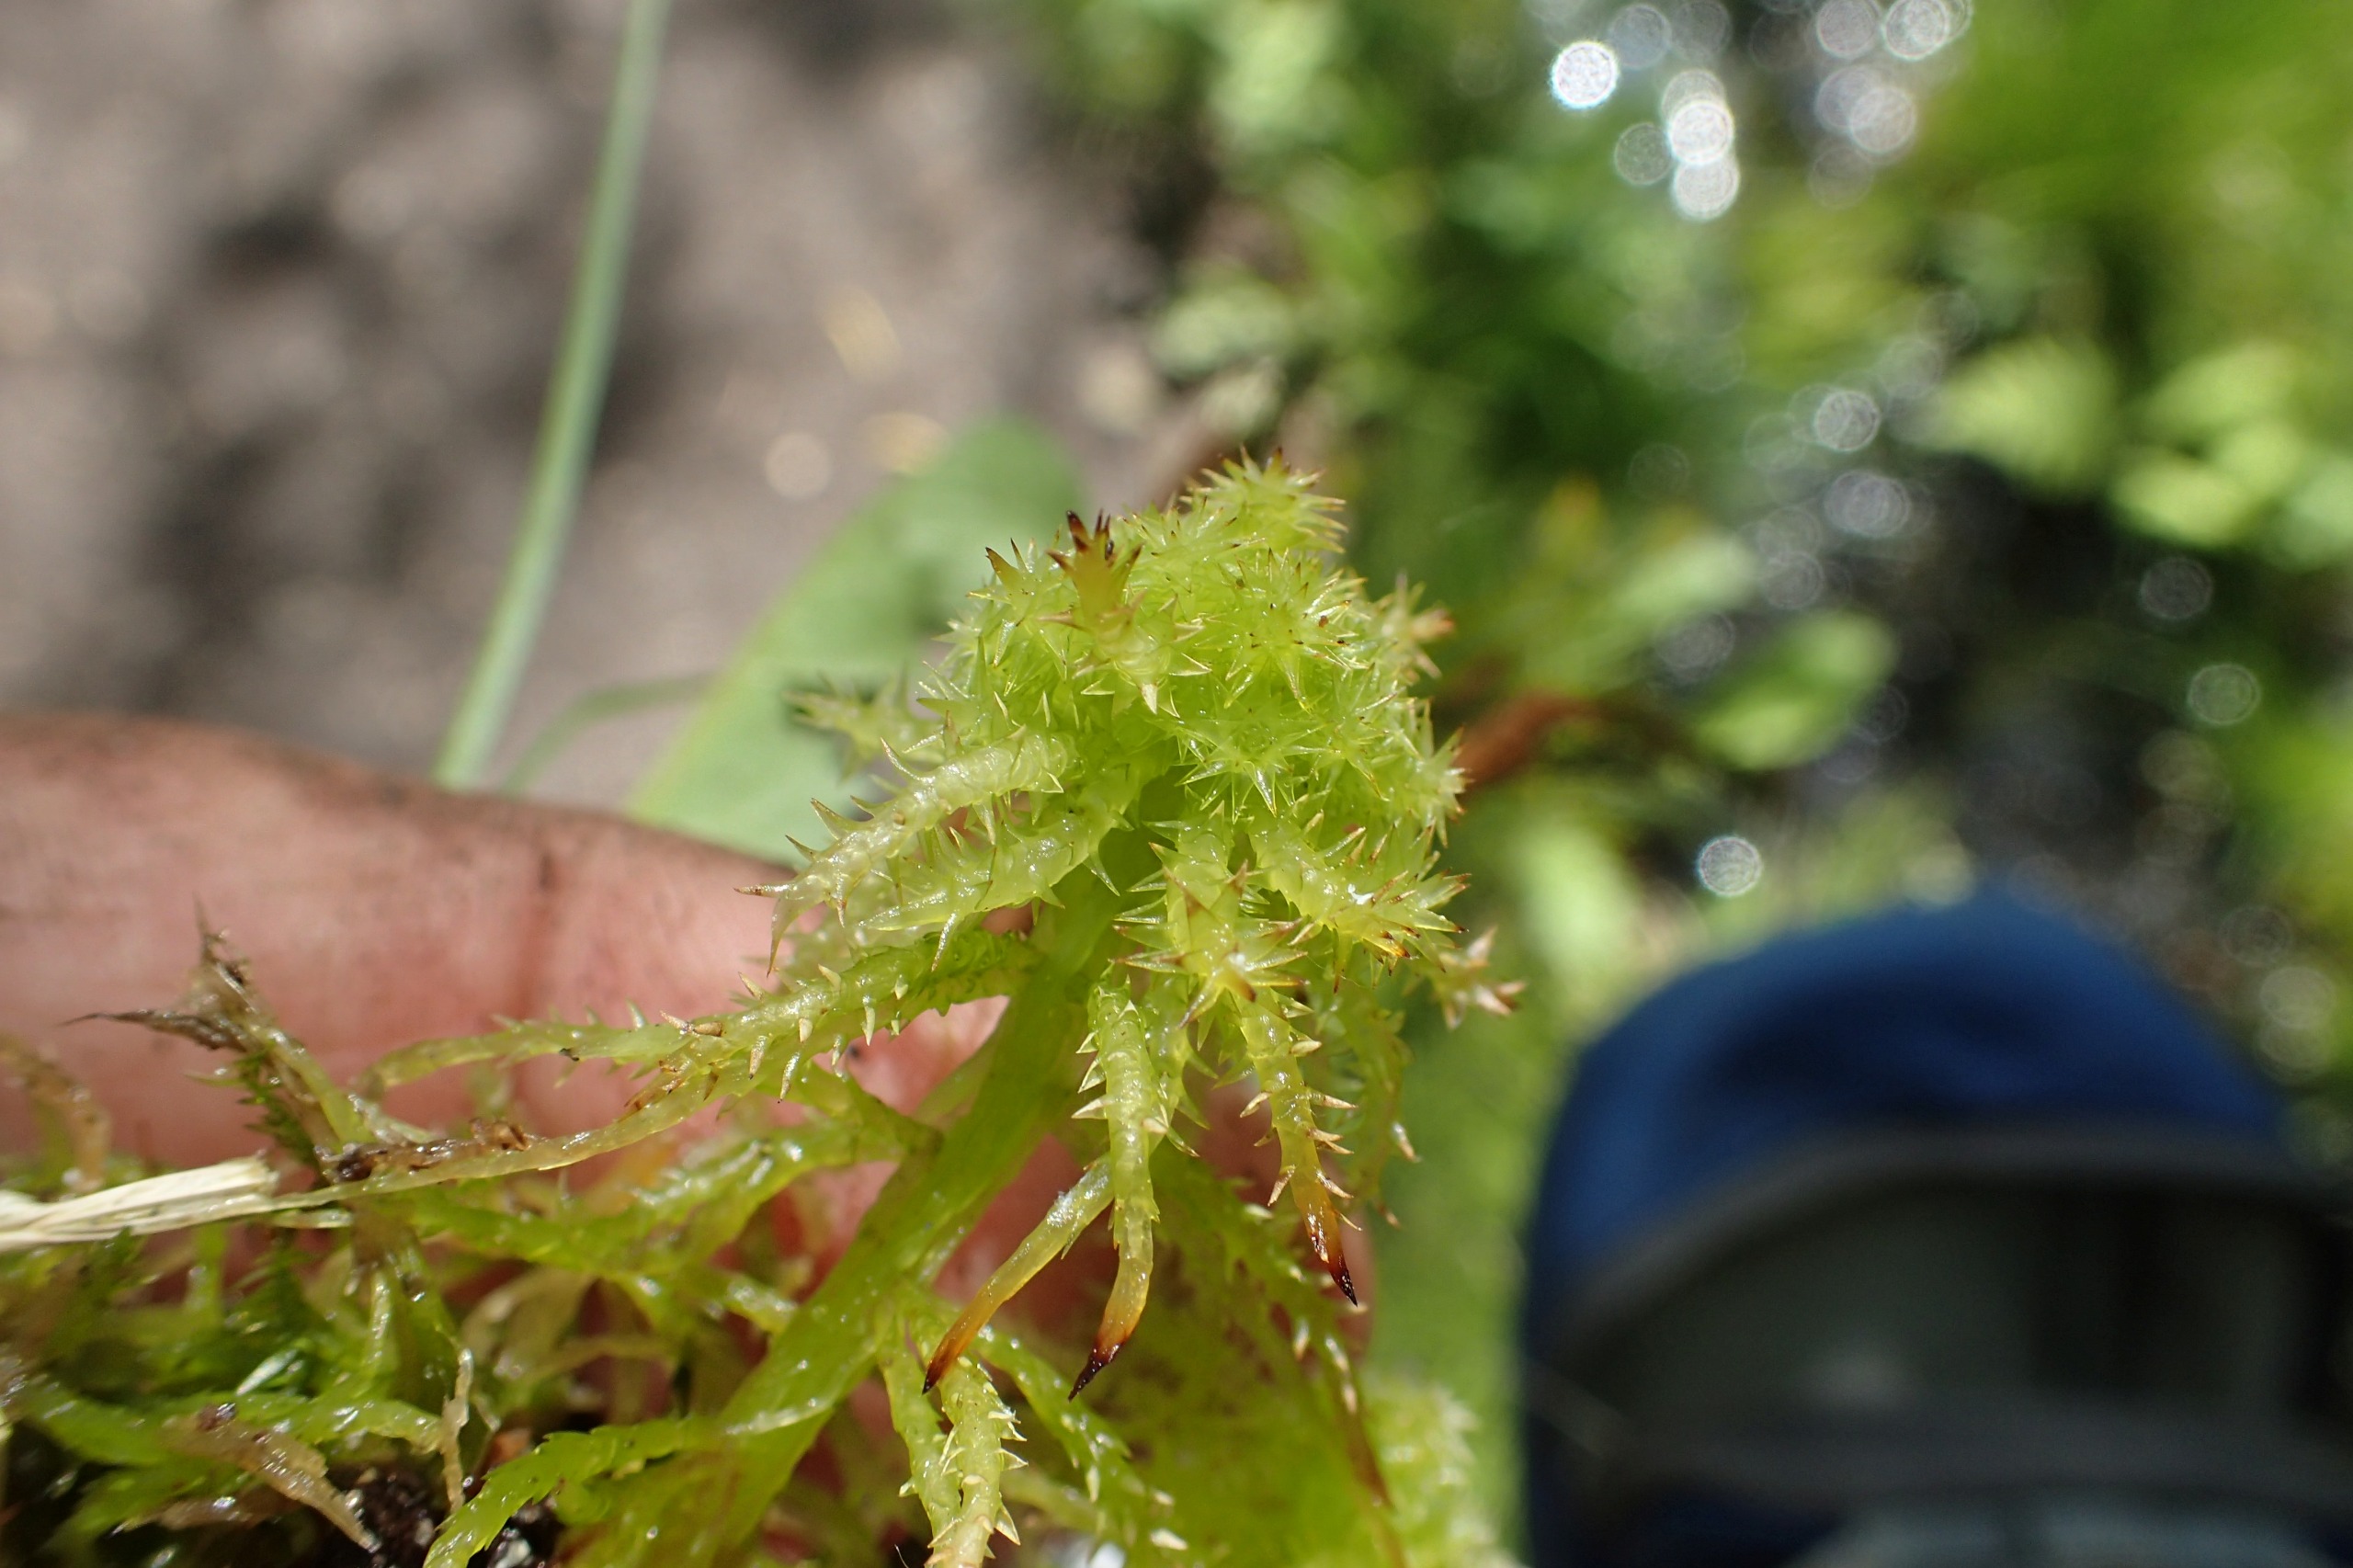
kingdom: Plantae
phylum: Bryophyta
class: Sphagnopsida
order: Sphagnales
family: Sphagnaceae
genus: Sphagnum
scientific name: Sphagnum squarrosum
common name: Udspærret tørvemos
